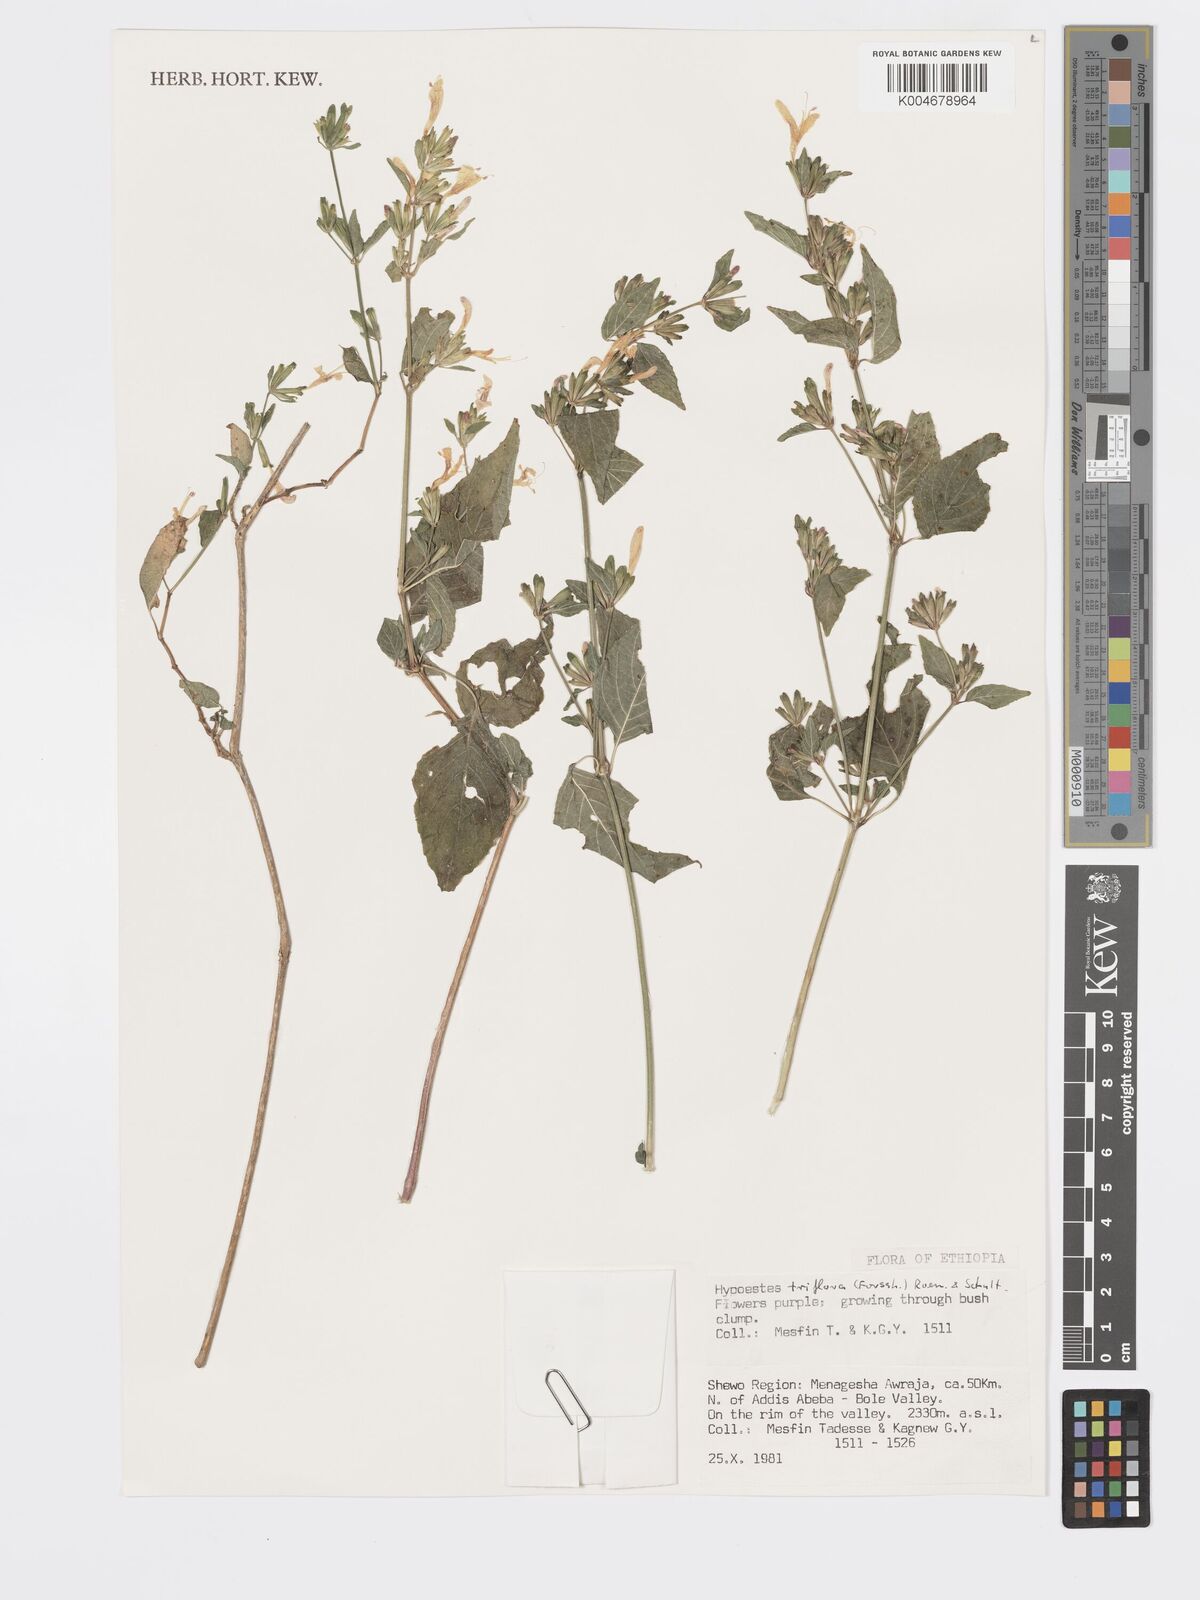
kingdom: Plantae
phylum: Tracheophyta
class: Magnoliopsida
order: Lamiales
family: Acanthaceae
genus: Hypoestes
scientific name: Hypoestes triflora
